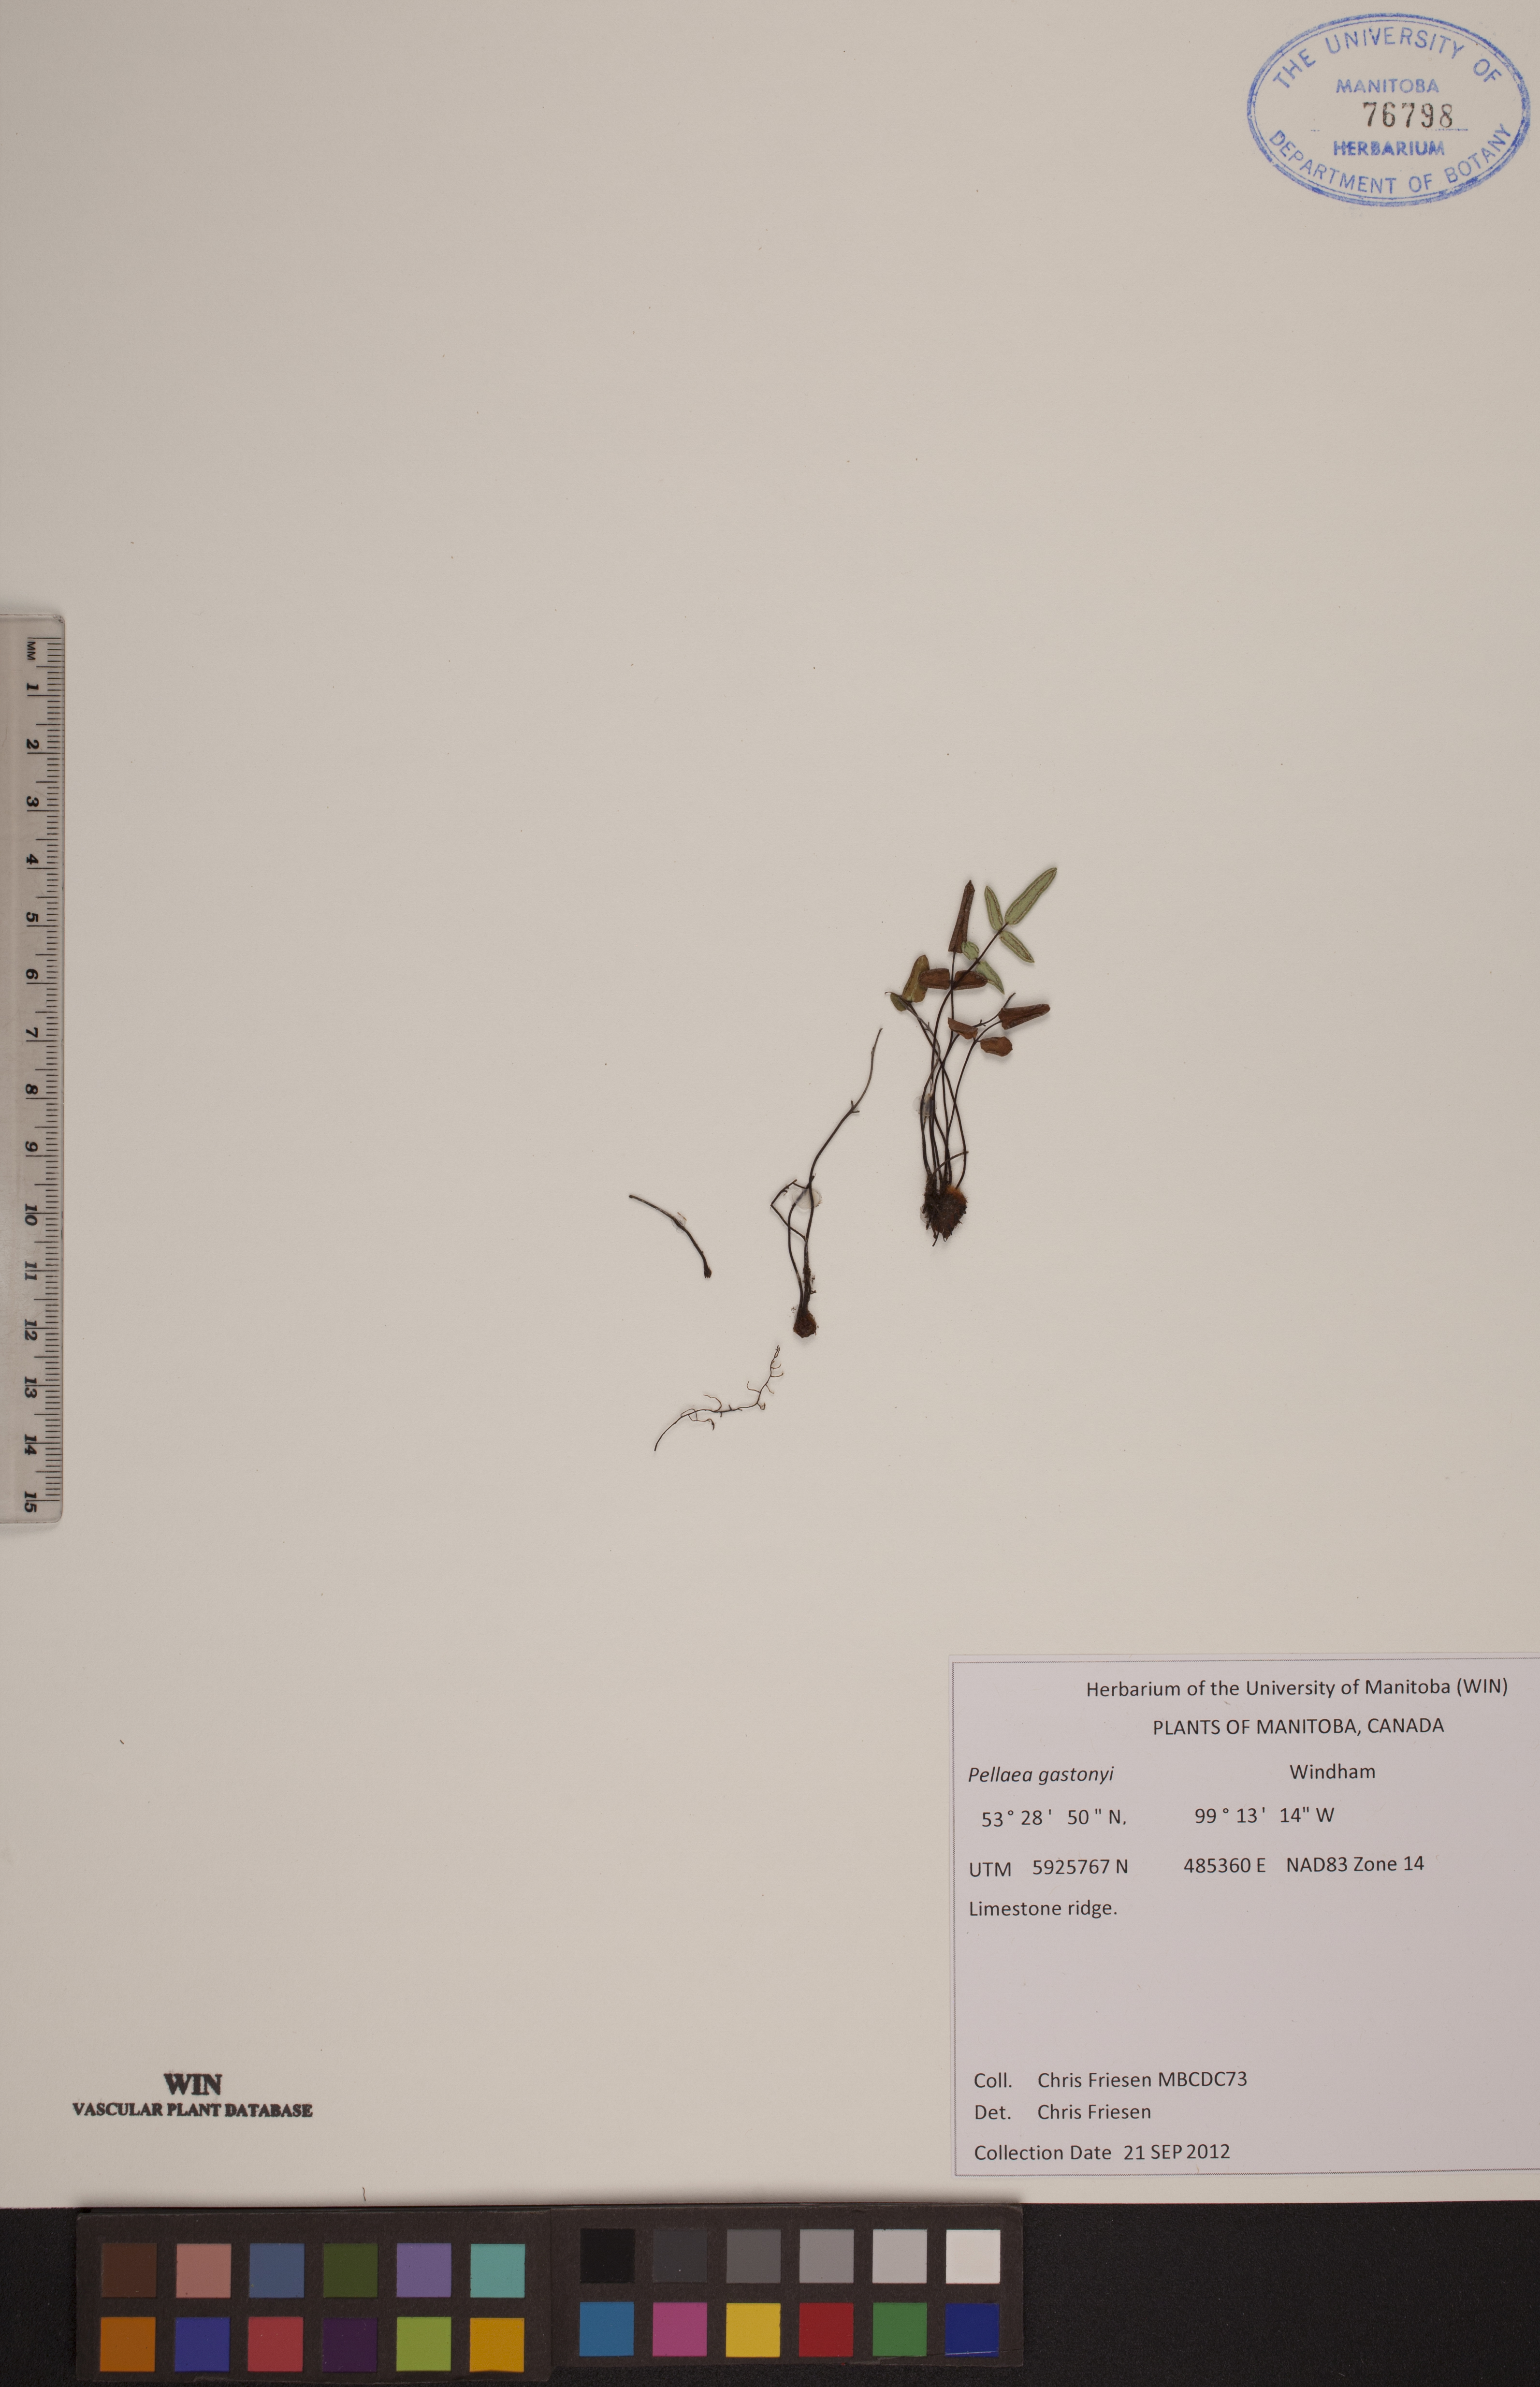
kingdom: Plantae
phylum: Tracheophyta
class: Polypodiopsida
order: Polypodiales
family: Pteridaceae
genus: Pellaea
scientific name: Pellaea gastonyi
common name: Gastony's cliffbrake
